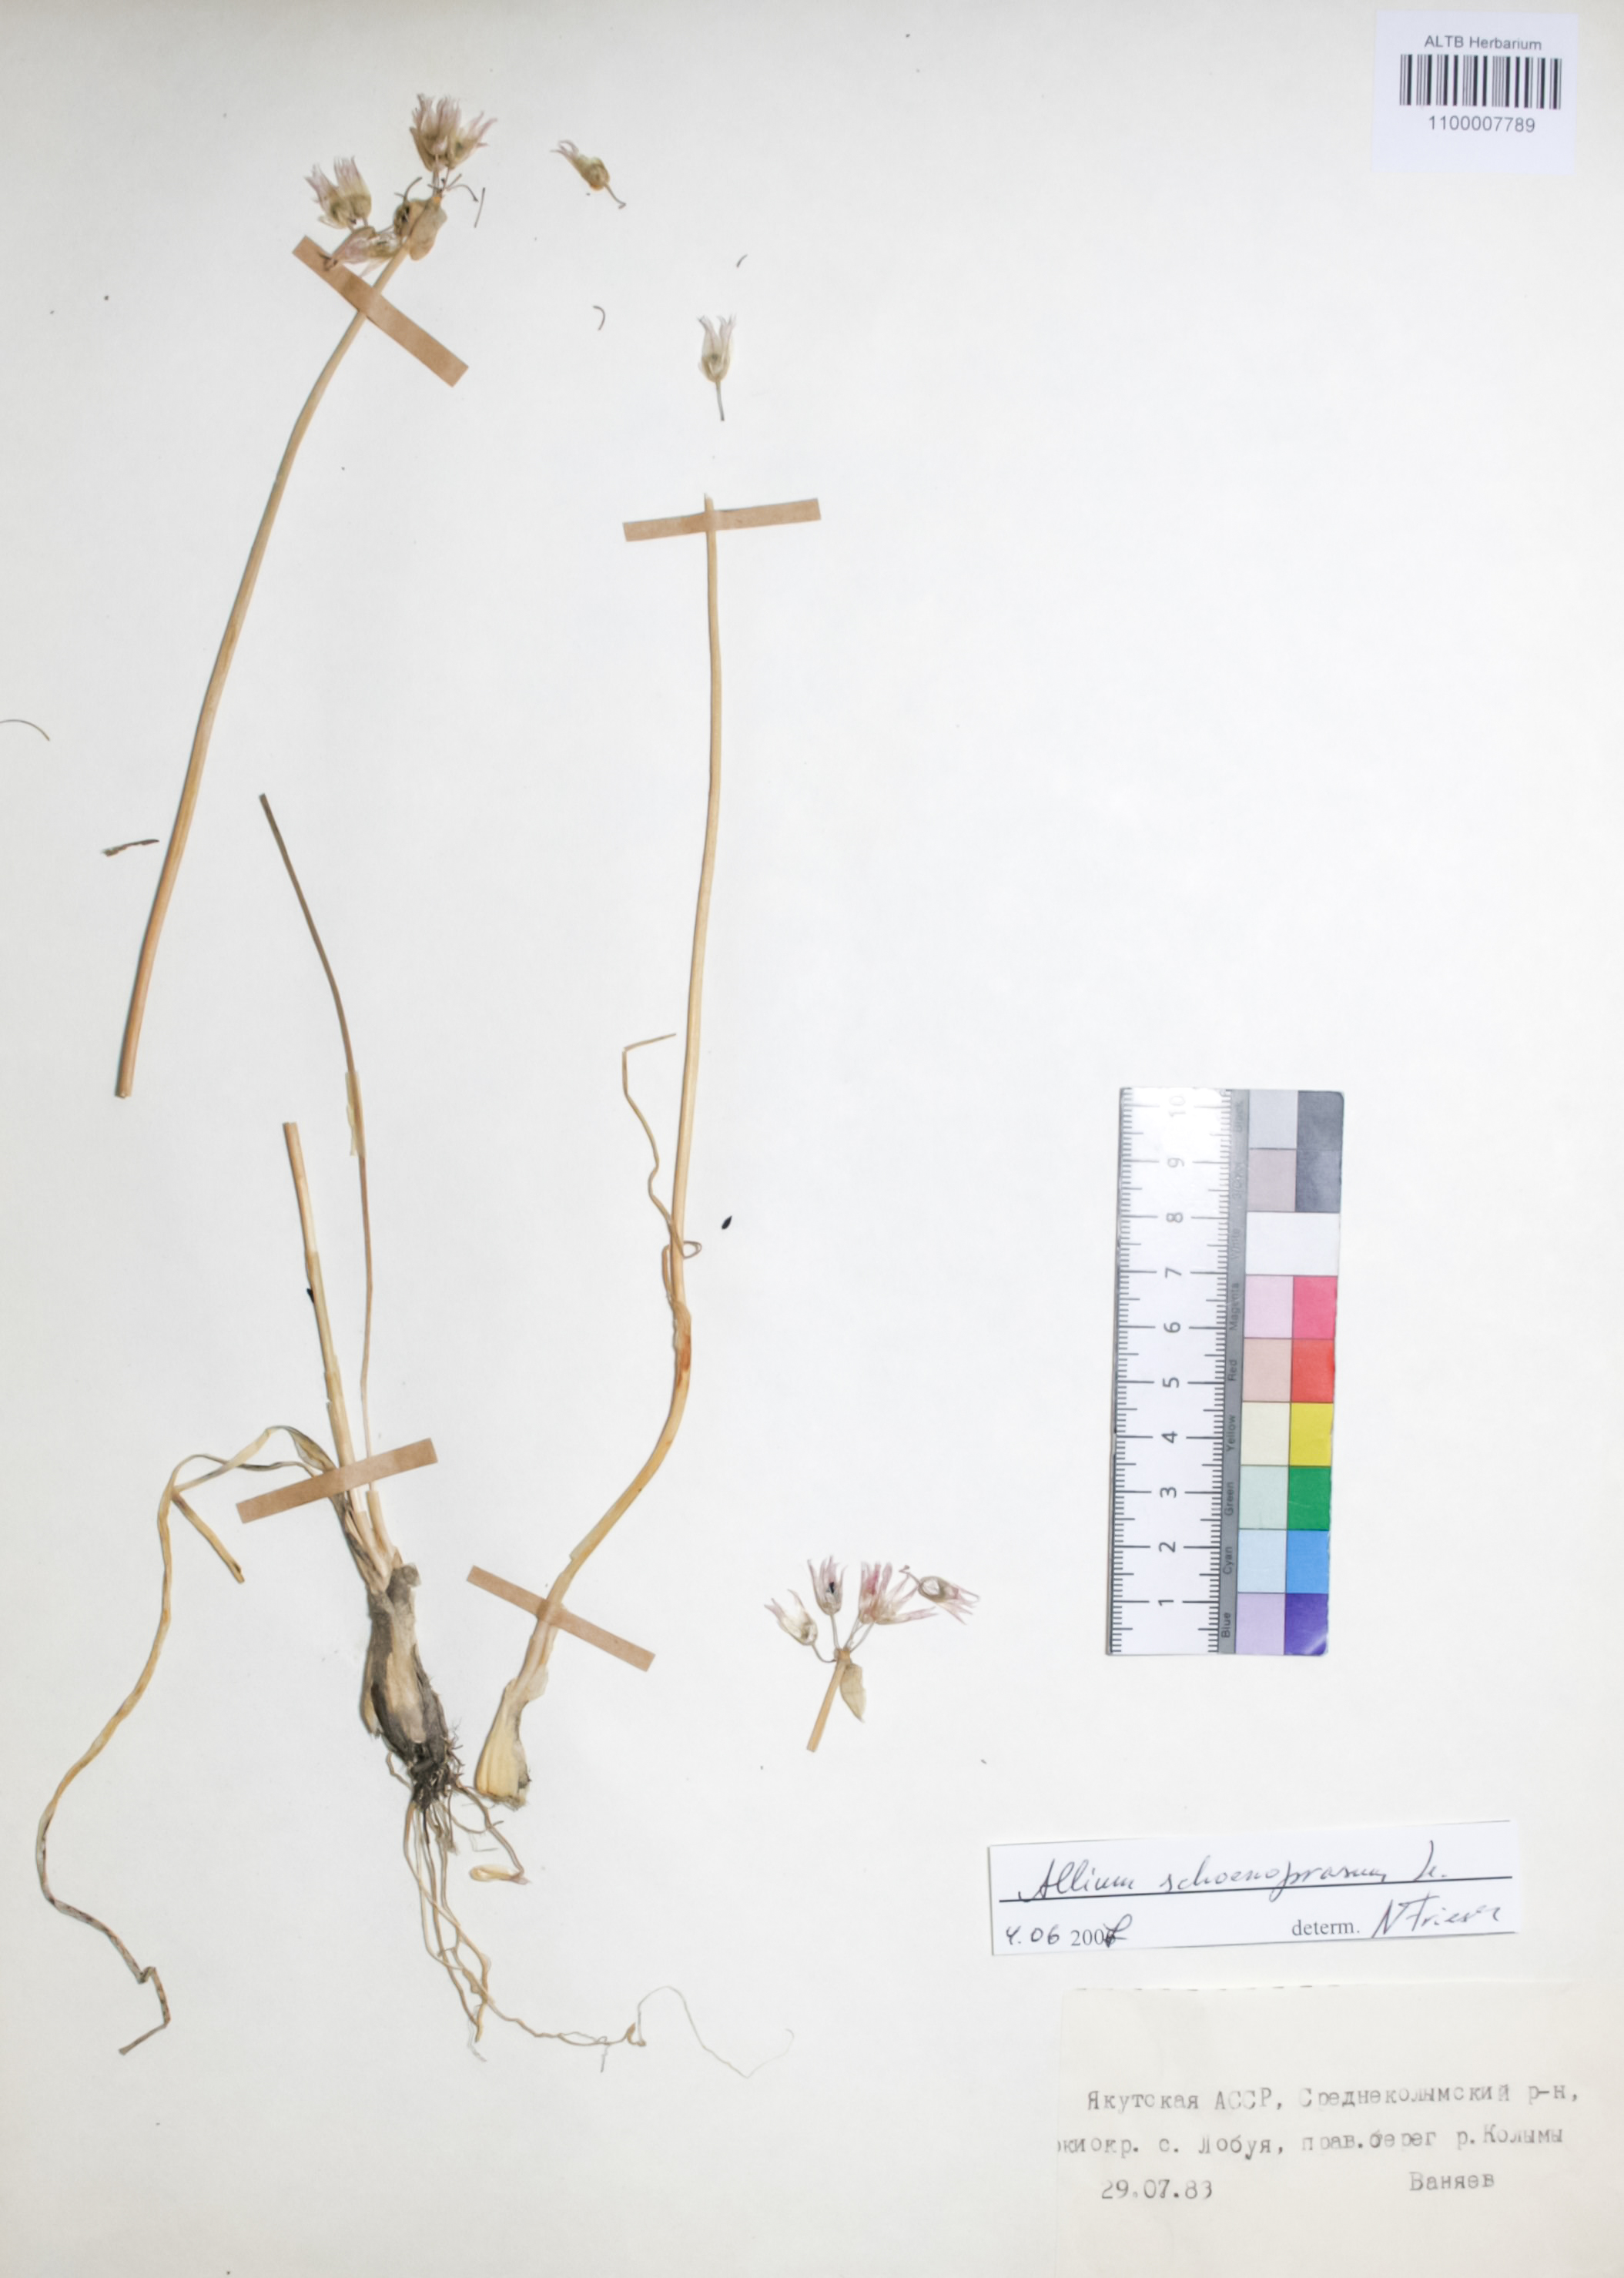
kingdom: Plantae
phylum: Tracheophyta
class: Liliopsida
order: Asparagales
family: Amaryllidaceae
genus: Allium
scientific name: Allium schoenoprasum
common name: Chives
